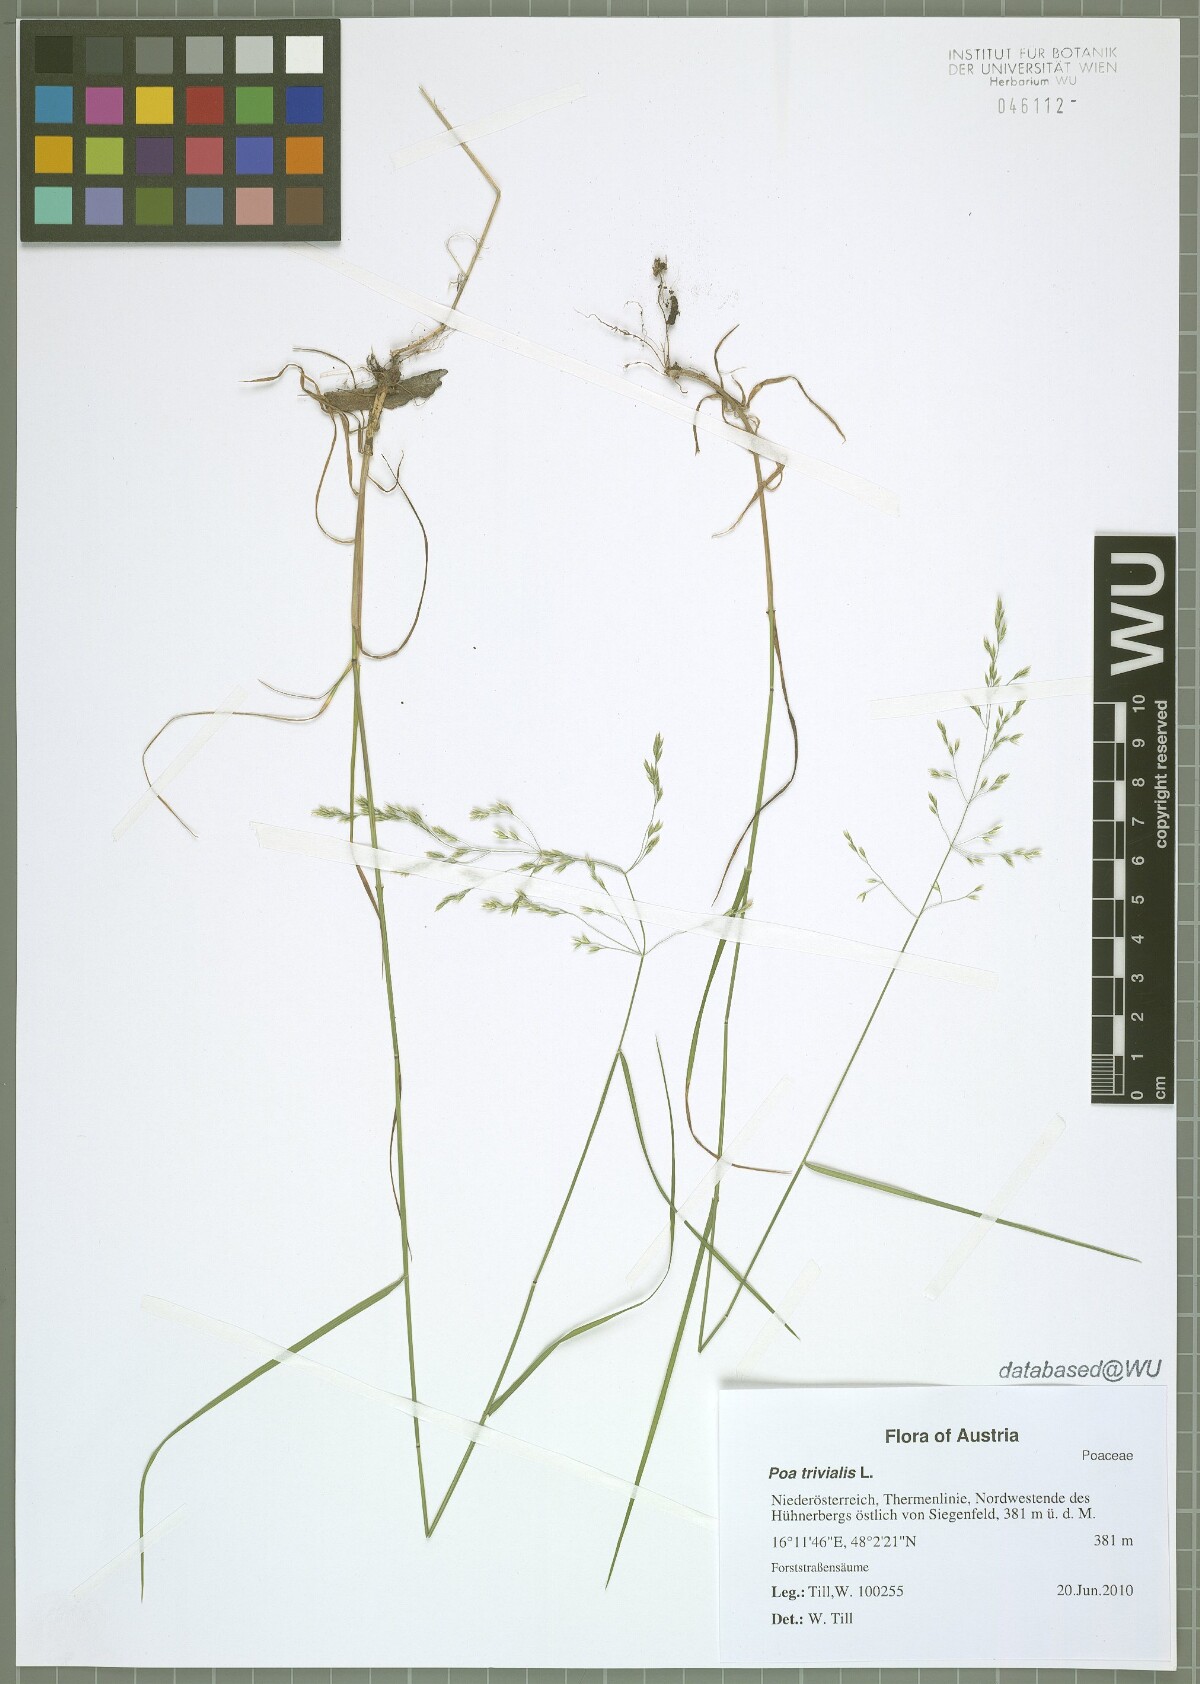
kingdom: Plantae
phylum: Tracheophyta
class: Liliopsida
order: Poales
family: Poaceae
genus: Poa
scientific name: Poa trivialis
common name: Rough bluegrass
